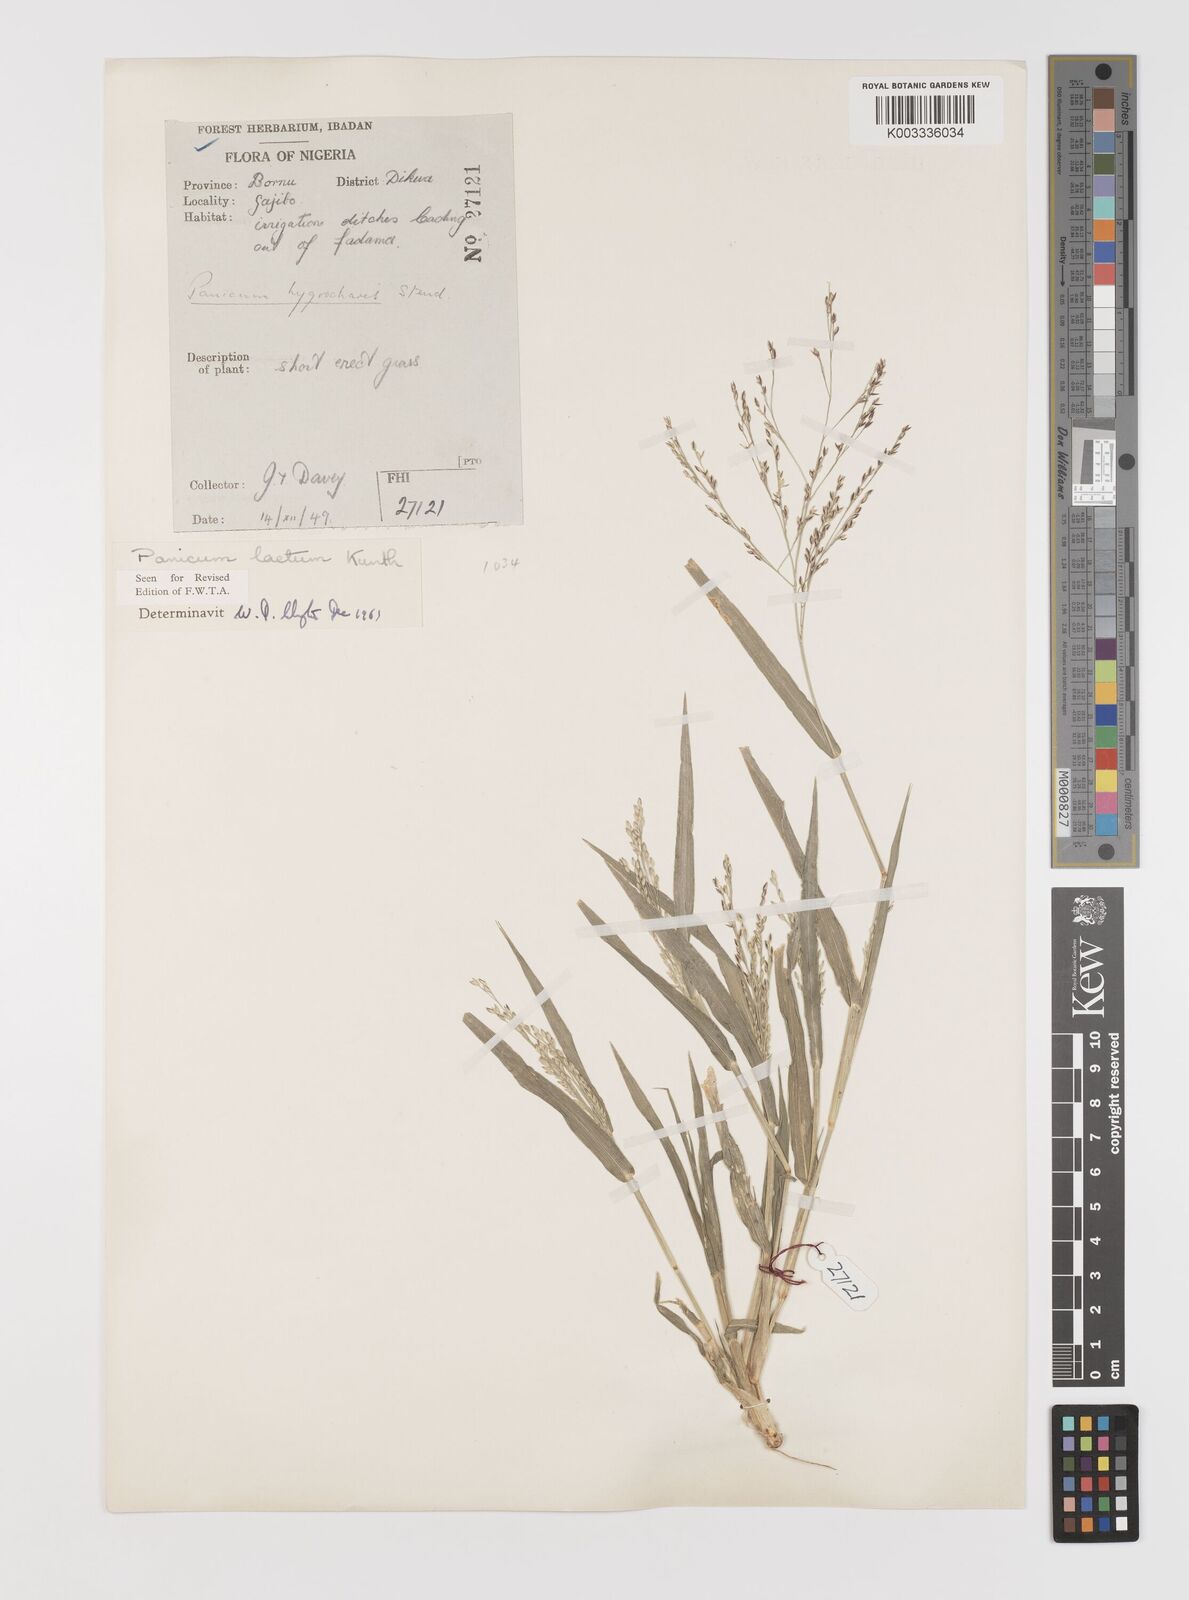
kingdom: Plantae
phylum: Tracheophyta
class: Liliopsida
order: Poales
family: Poaceae
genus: Panicum
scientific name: Panicum laetum
